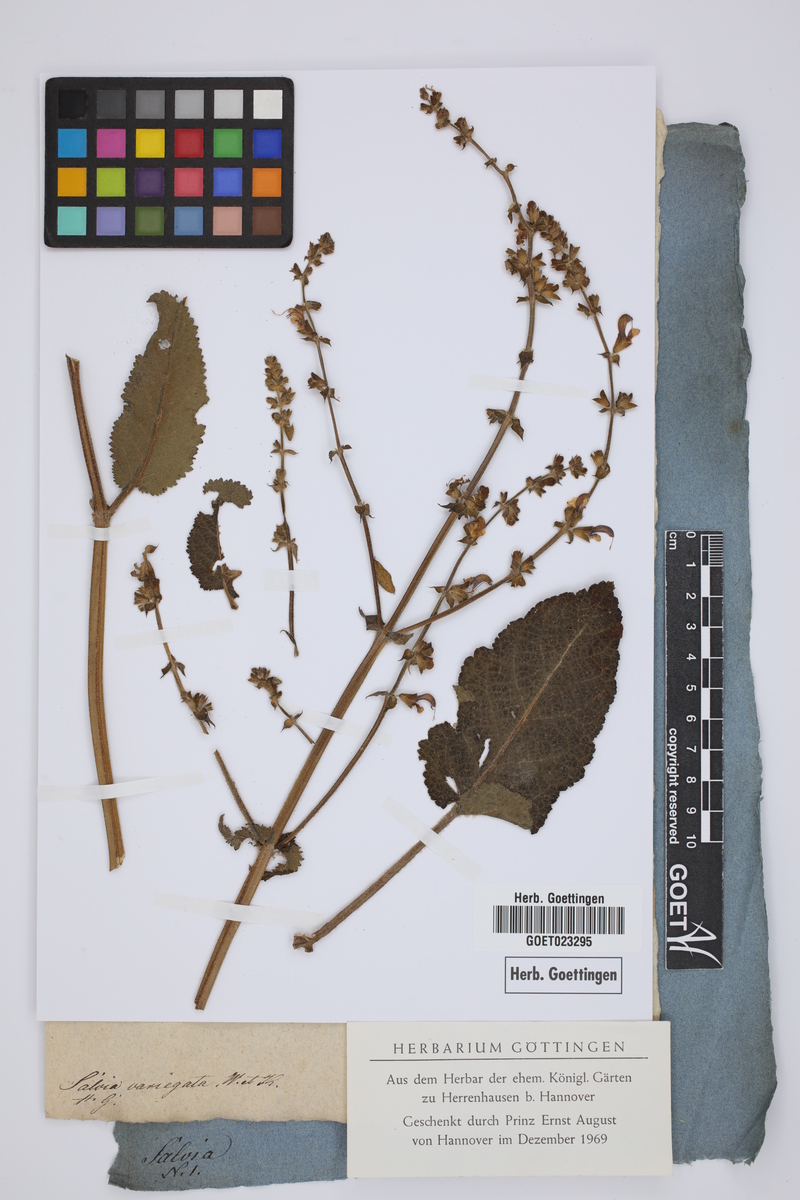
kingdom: Plantae
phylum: Tracheophyta
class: Magnoliopsida
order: Lamiales
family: Lamiaceae
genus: Salvia
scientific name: Salvia pratensis
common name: Meadow sage
